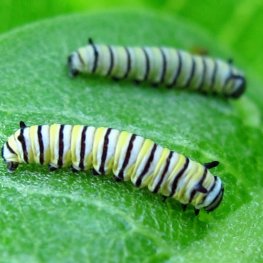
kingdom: Animalia
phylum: Arthropoda
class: Insecta
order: Lepidoptera
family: Nymphalidae
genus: Danaus
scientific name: Danaus plexippus
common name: Monarch
